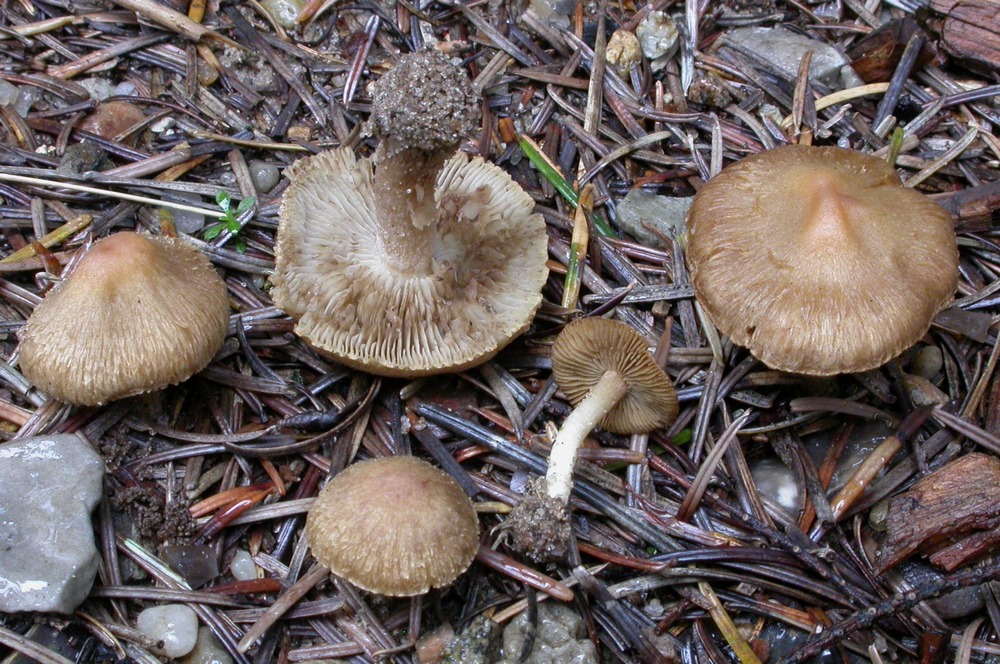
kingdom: Fungi
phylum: Basidiomycota
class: Agaricomycetes
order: Agaricales
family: Inocybaceae
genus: Inocybe
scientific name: Inocybe
